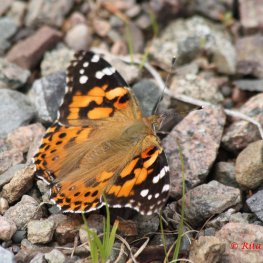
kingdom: Animalia
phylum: Arthropoda
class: Insecta
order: Lepidoptera
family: Nymphalidae
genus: Vanessa
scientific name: Vanessa cardui
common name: Painted Lady
